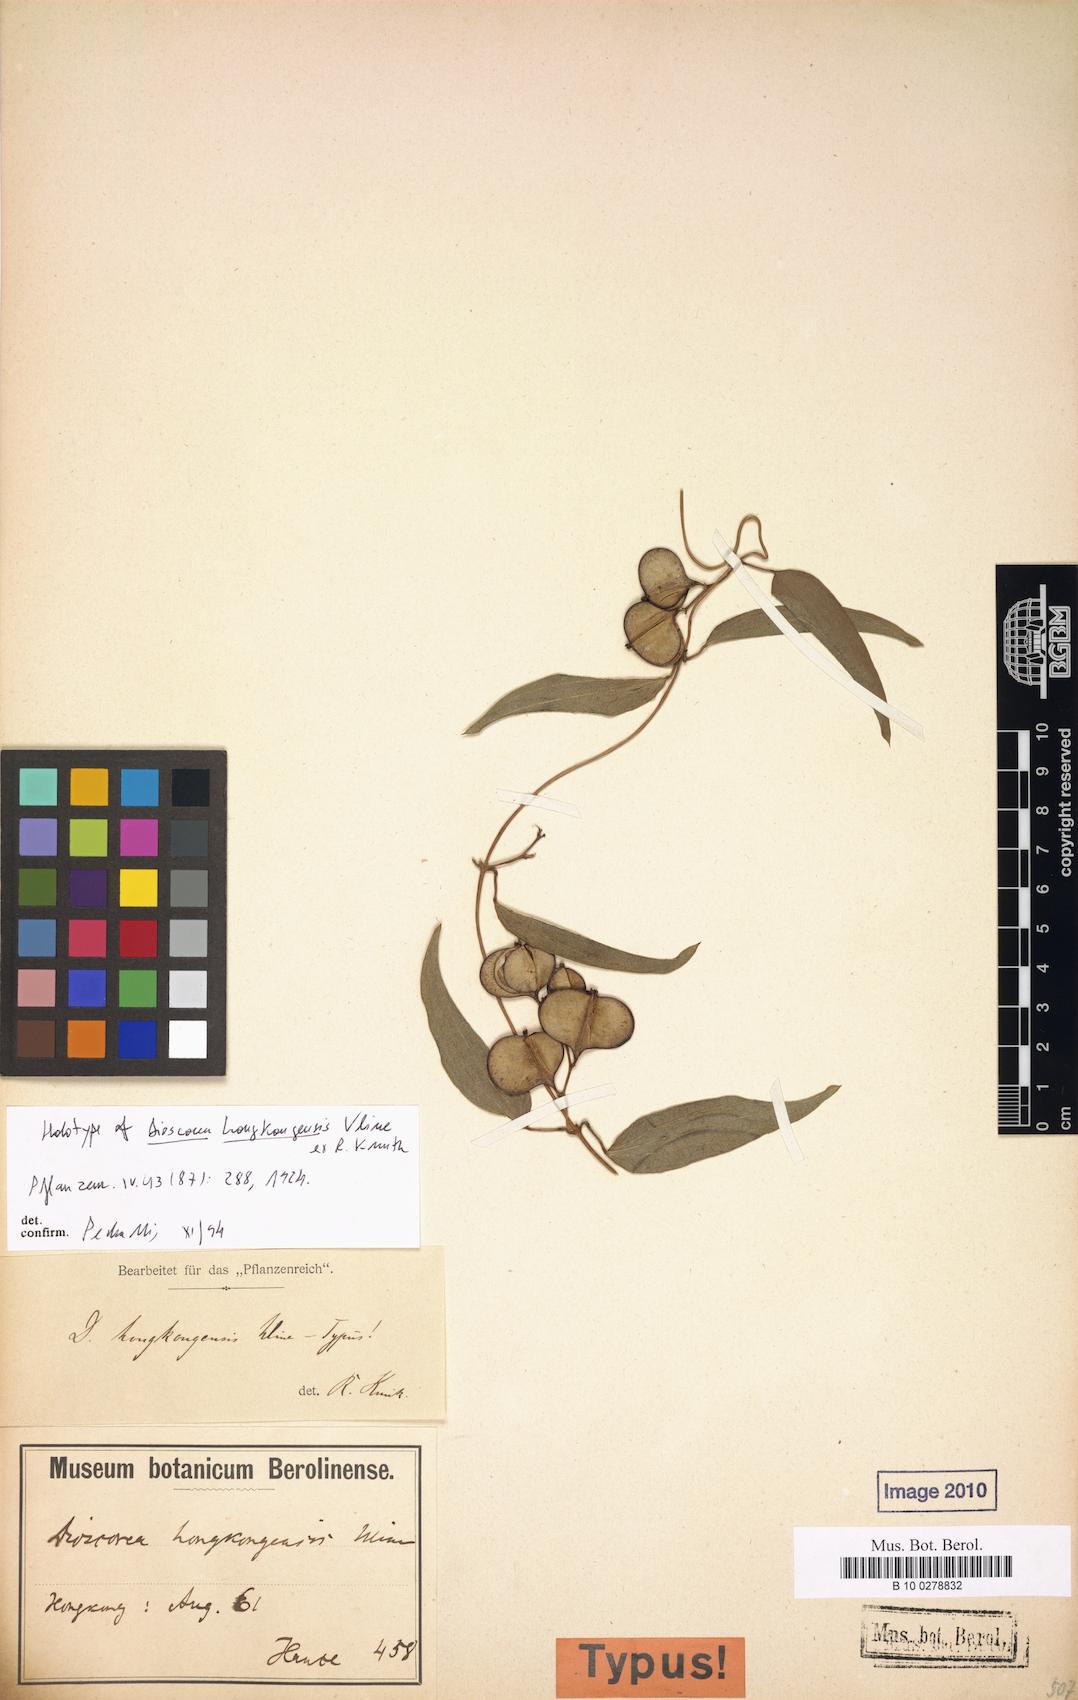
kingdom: Plantae
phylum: Tracheophyta
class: Liliopsida
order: Dioscoreales
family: Dioscoreaceae
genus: Dioscorea
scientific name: Dioscorea glabra
